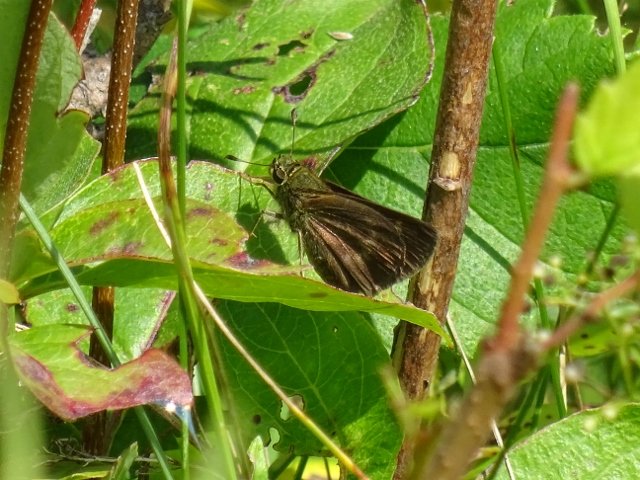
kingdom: Animalia
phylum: Arthropoda
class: Insecta
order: Lepidoptera
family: Hesperiidae
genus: Euphyes
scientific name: Euphyes vestris
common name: Dun Skipper
